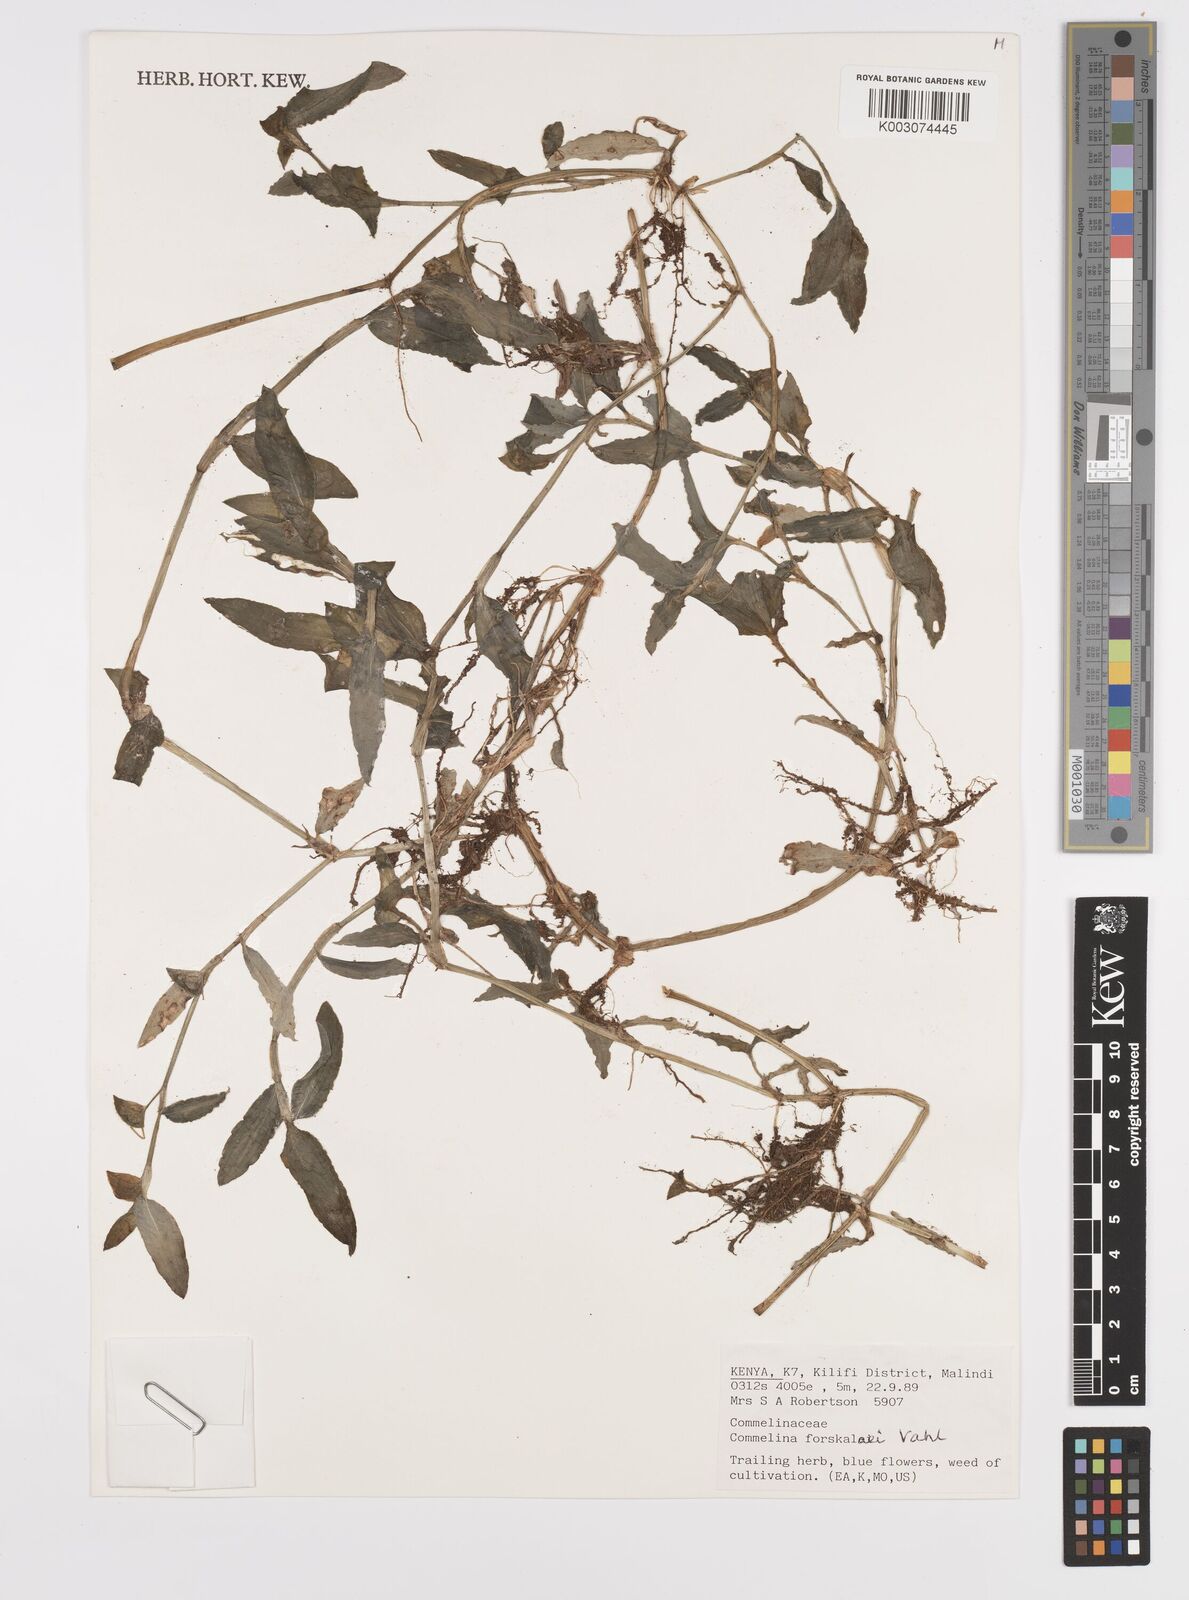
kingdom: Plantae
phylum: Tracheophyta
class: Liliopsida
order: Commelinales
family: Commelinaceae
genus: Commelina
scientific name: Commelina
